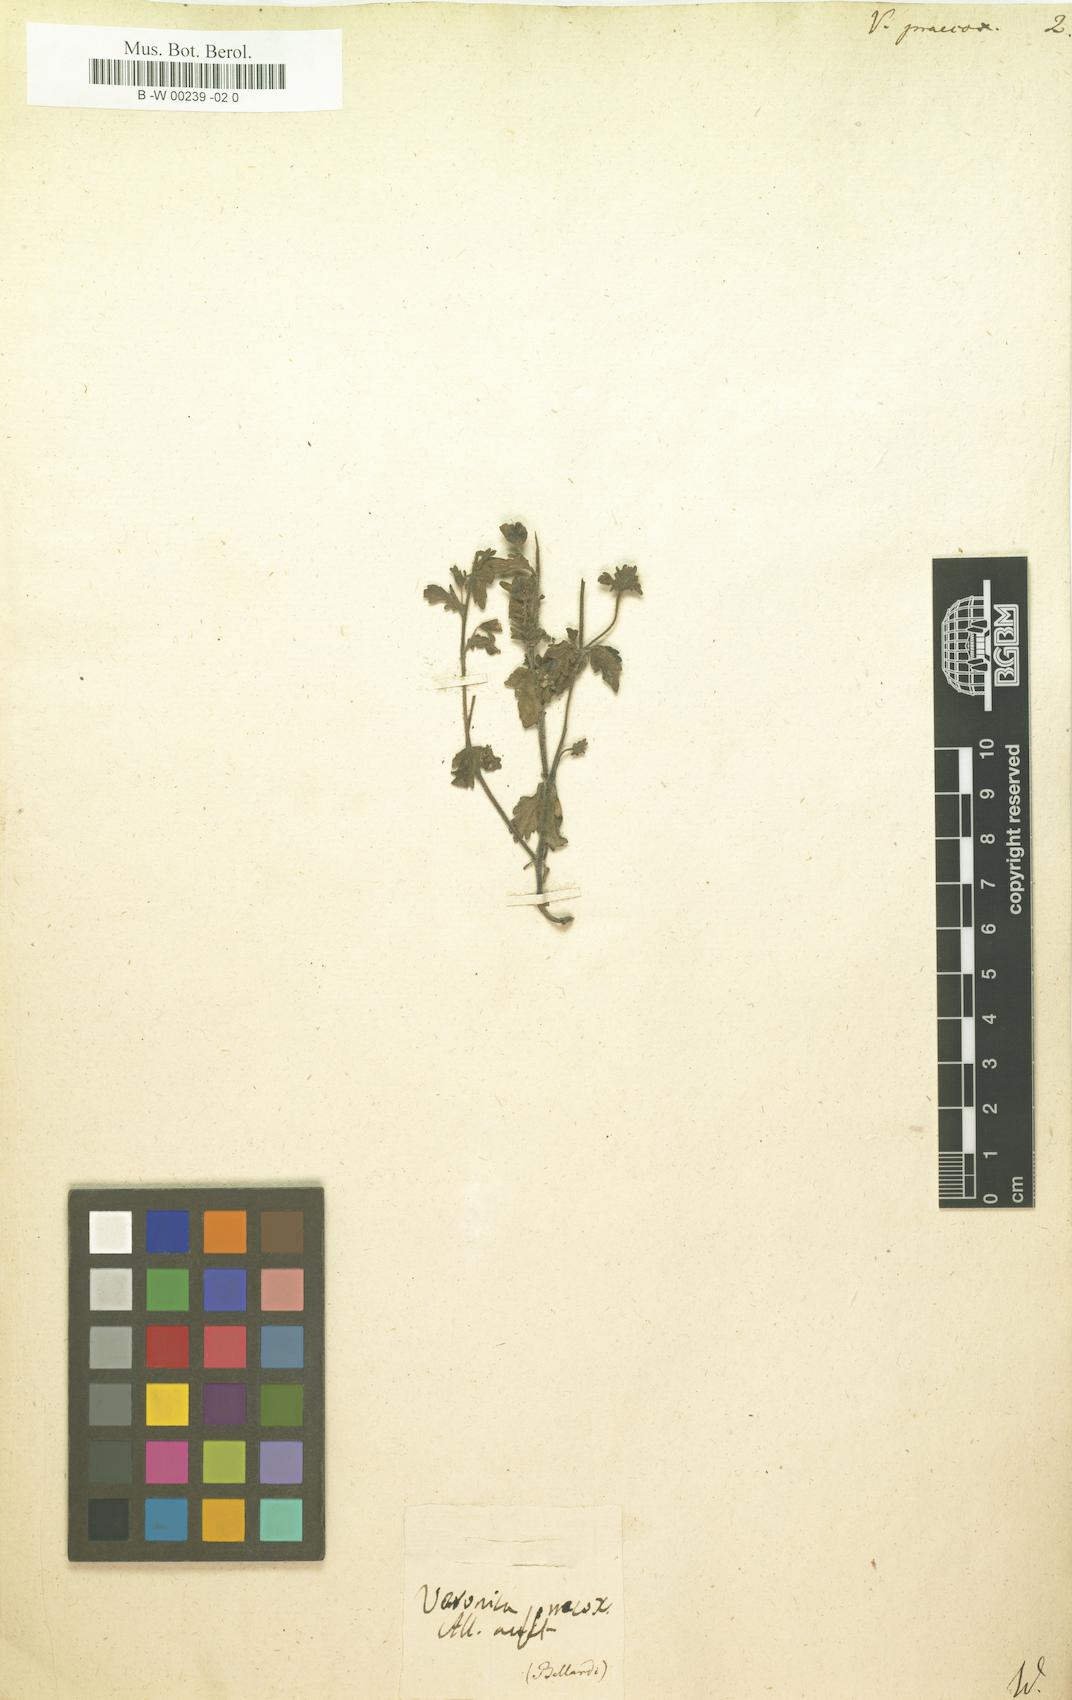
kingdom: Plantae
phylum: Tracheophyta
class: Magnoliopsida
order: Lamiales
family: Plantaginaceae
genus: Veronica
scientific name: Veronica praecox
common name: Breckland speedwell
